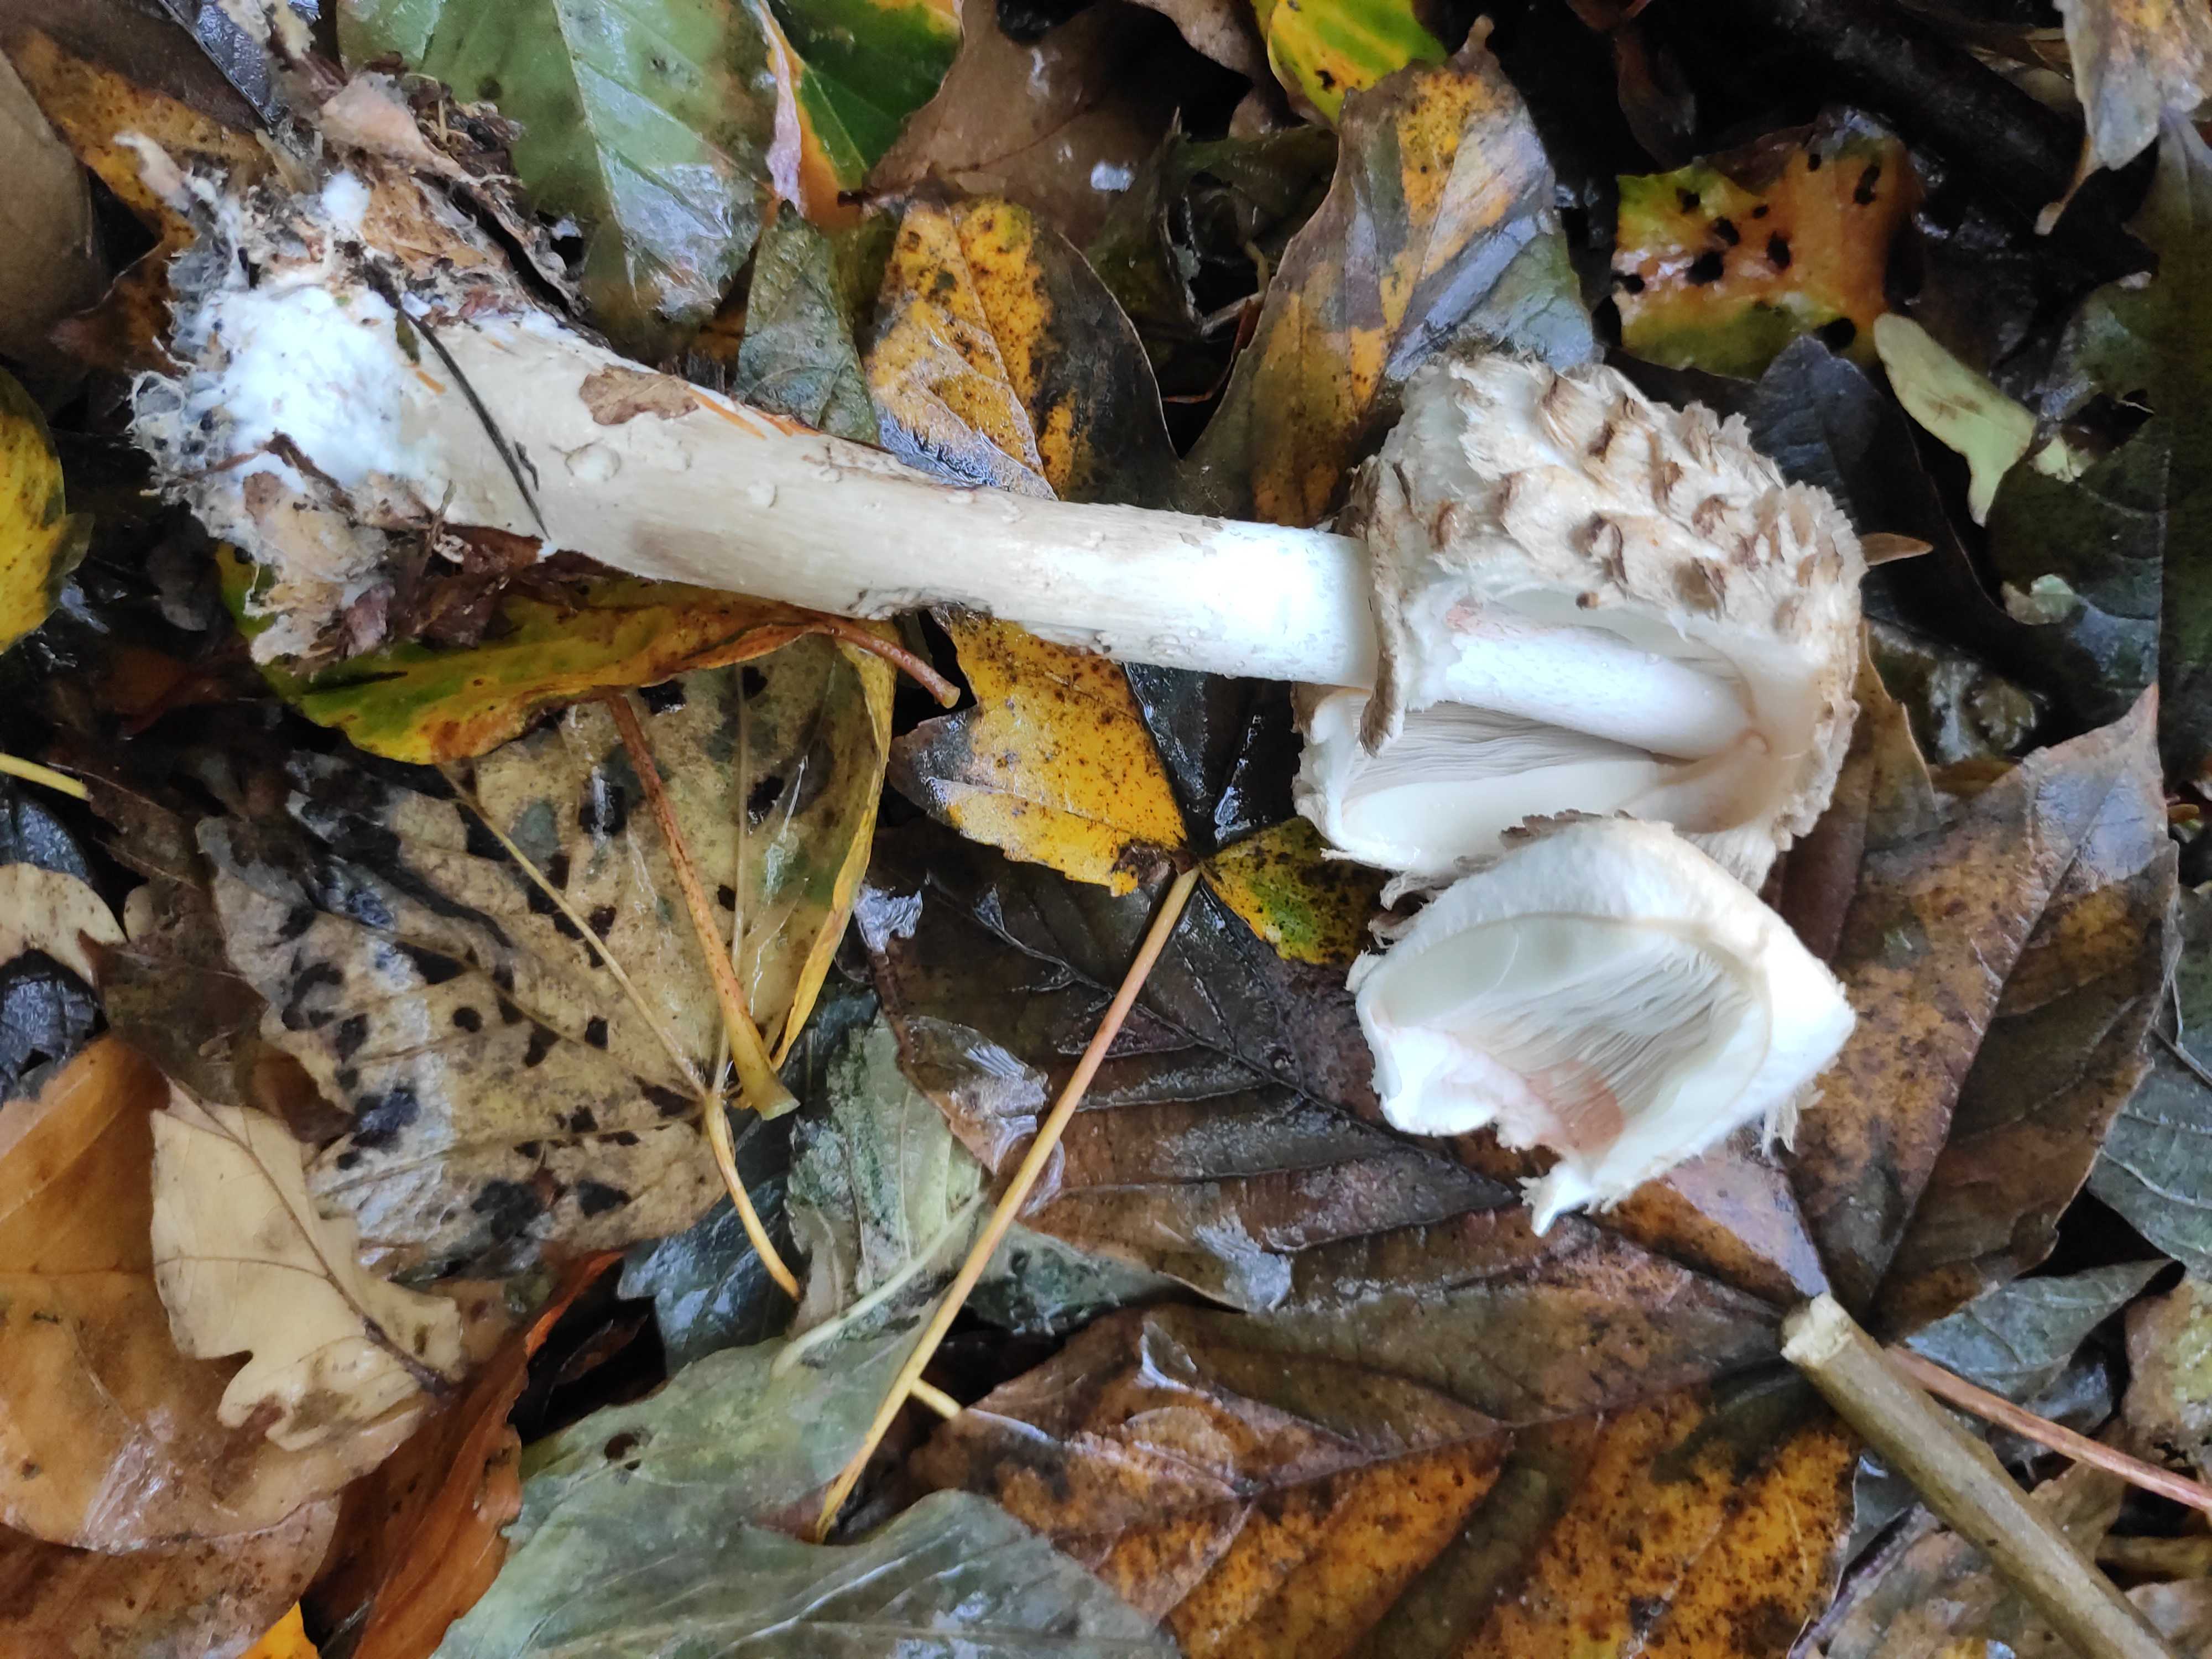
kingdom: Fungi
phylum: Basidiomycota
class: Agaricomycetes
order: Agaricales
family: Agaricaceae
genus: Chlorophyllum
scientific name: Chlorophyllum
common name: rabarberhat
